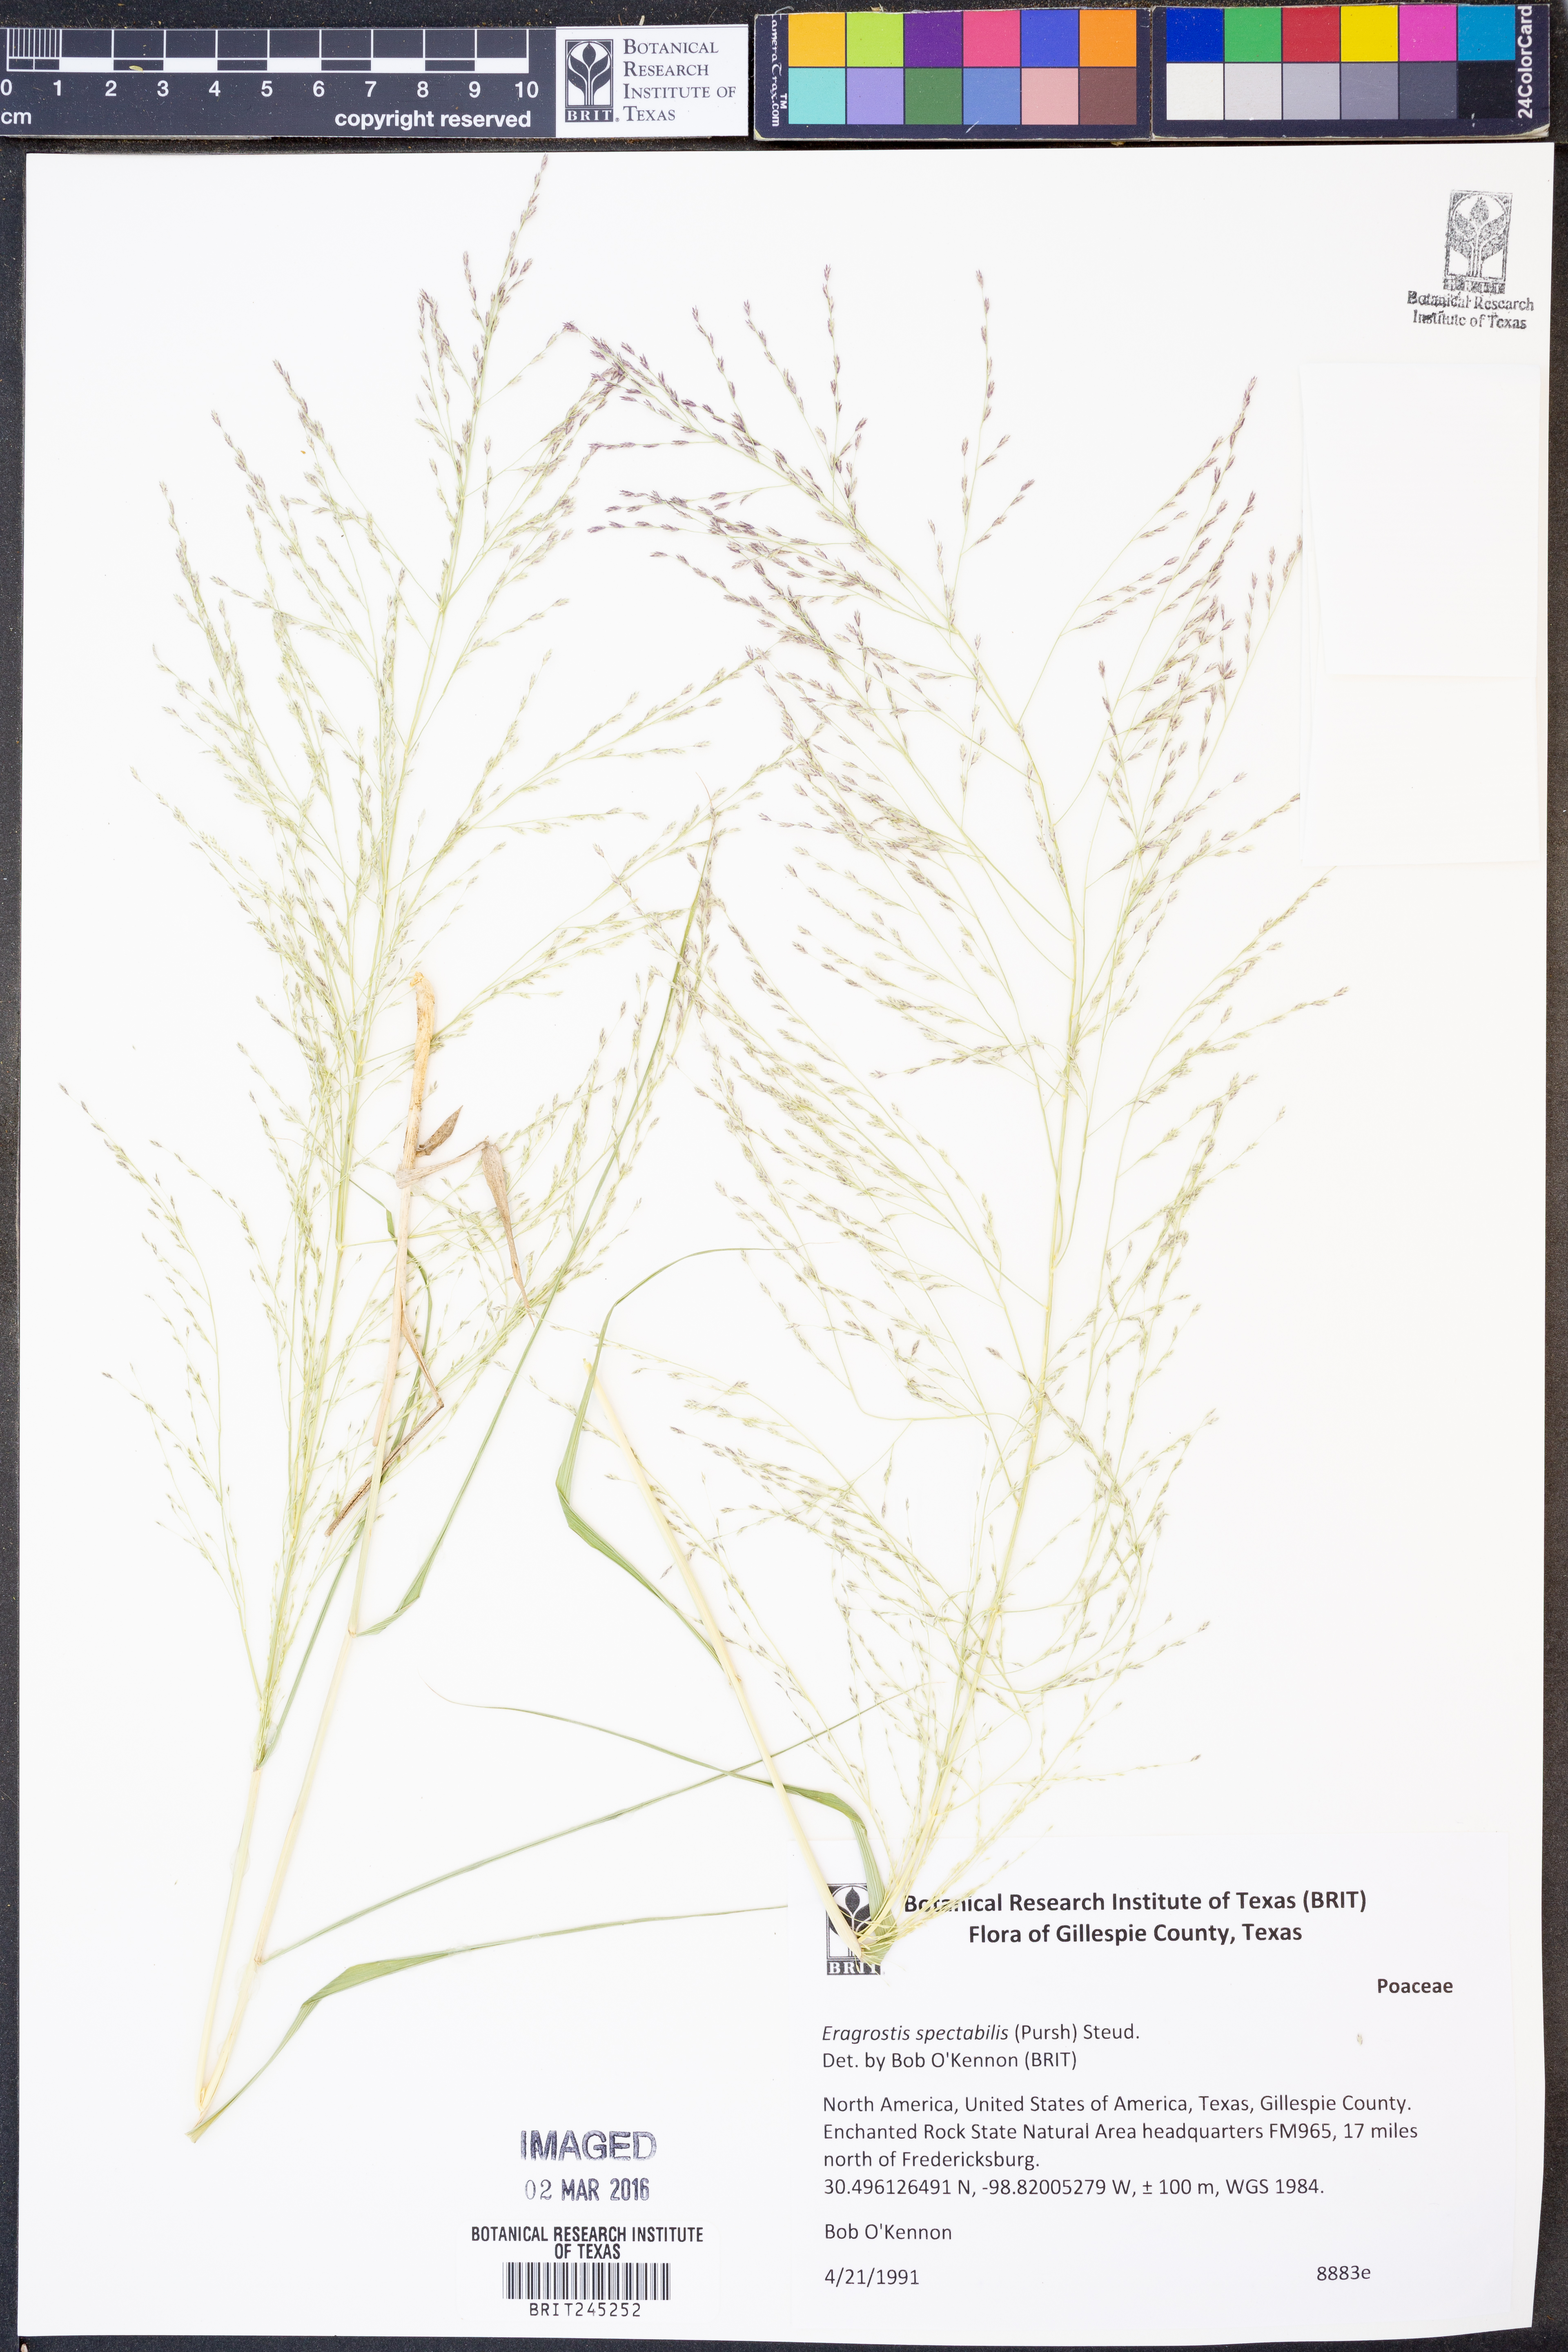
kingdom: Plantae
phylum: Tracheophyta
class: Liliopsida
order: Poales
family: Poaceae
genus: Eragrostis
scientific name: Eragrostis spectabilis
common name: Petticoat-climber
